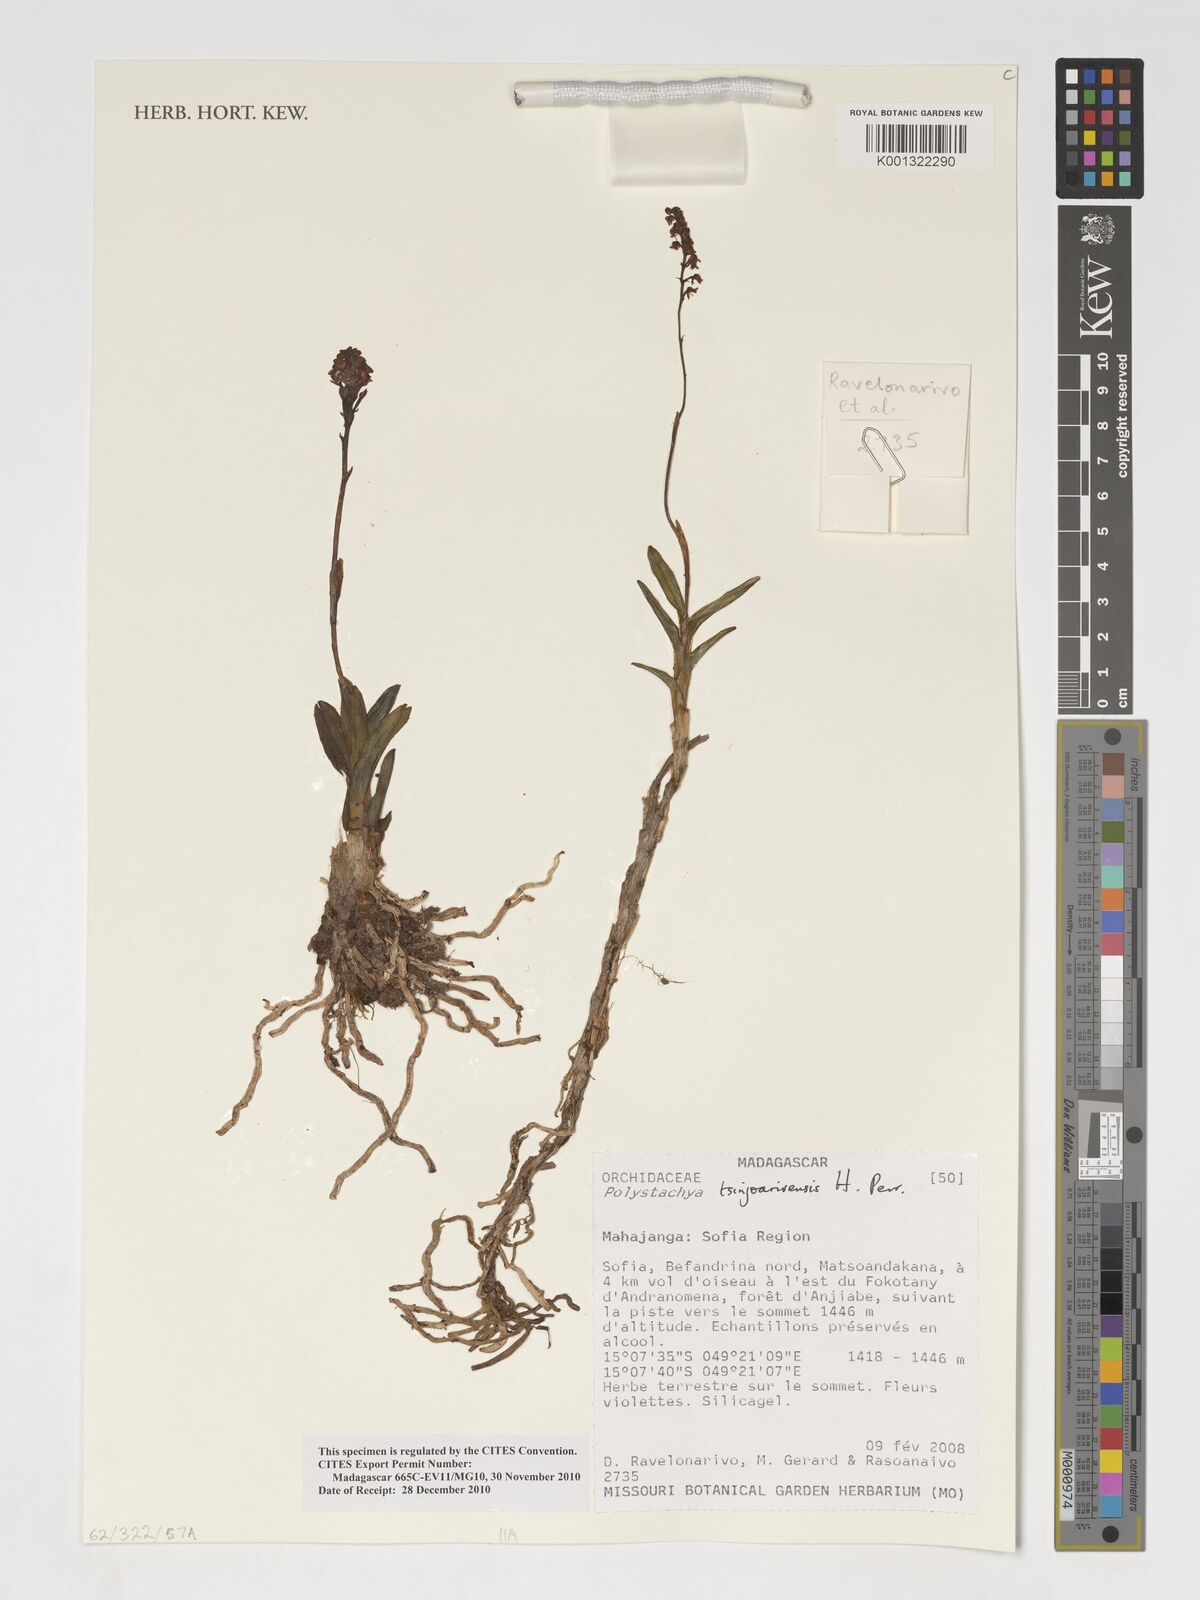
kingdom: Plantae
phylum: Tracheophyta
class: Liliopsida
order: Asparagales
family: Orchidaceae
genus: Polystachya
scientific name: Polystachya tsinjoarivensis
